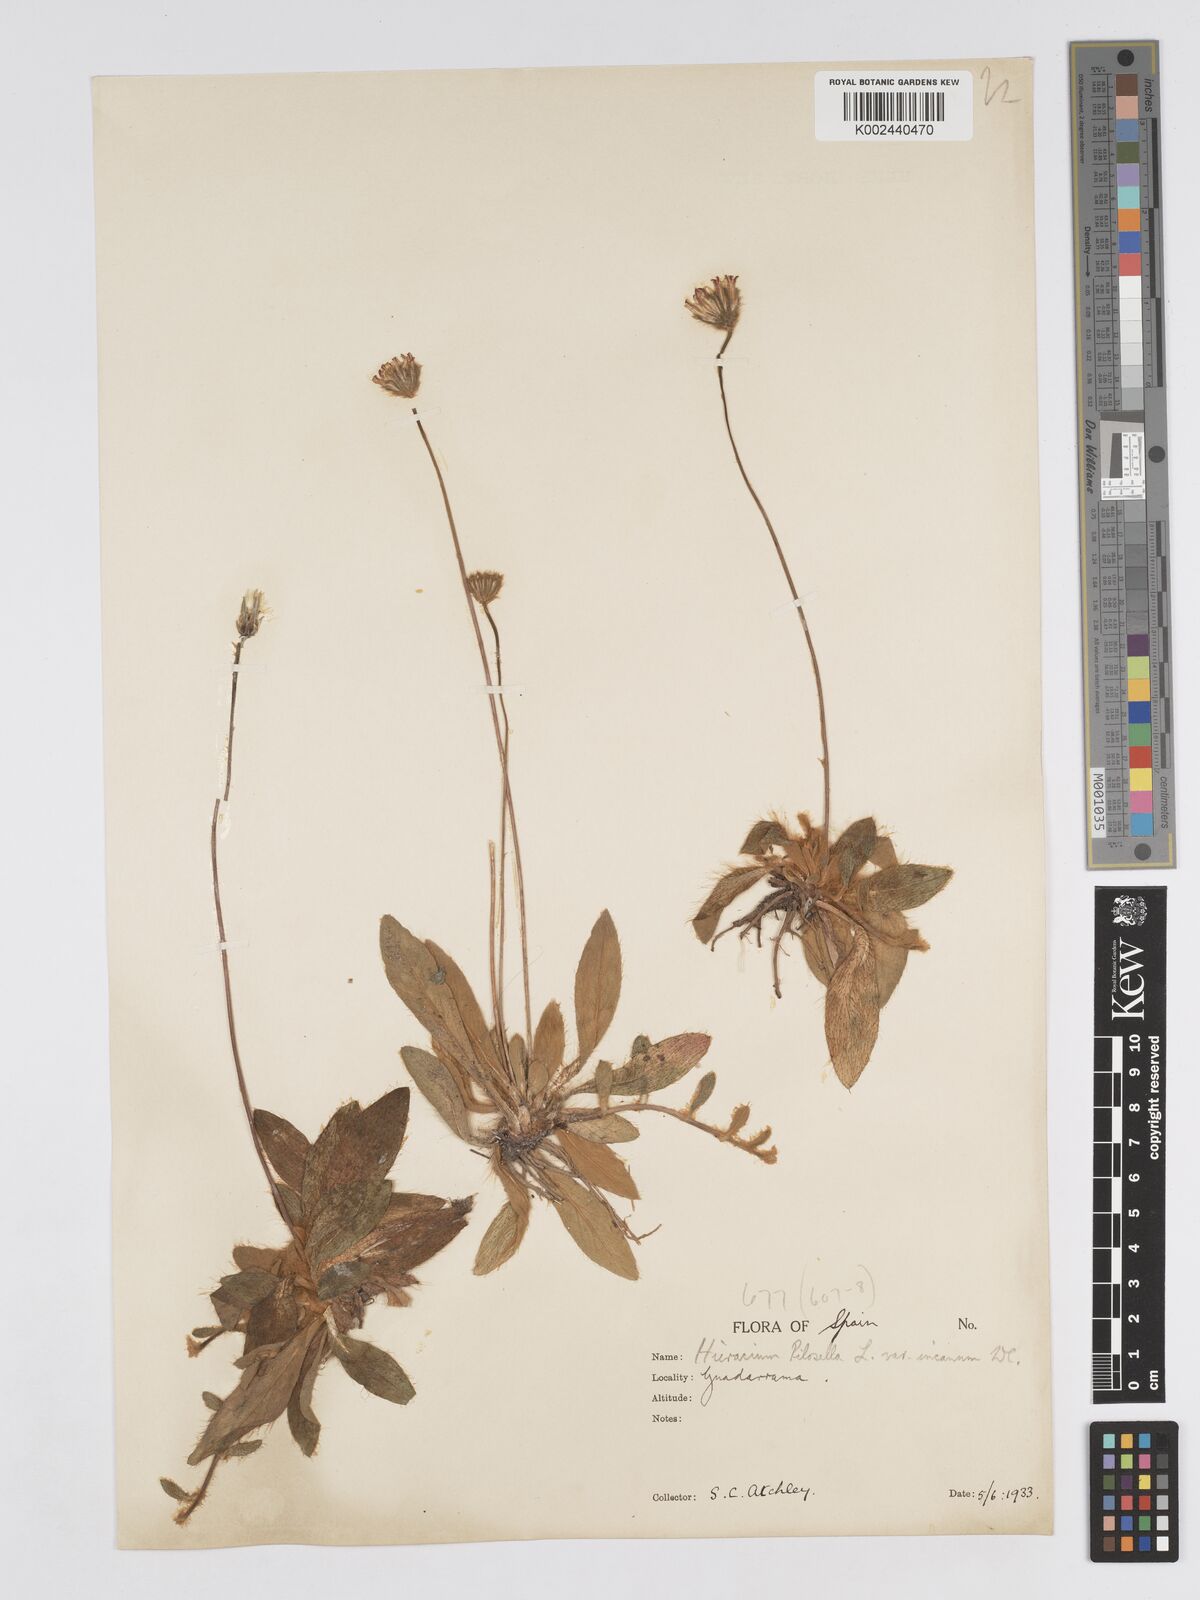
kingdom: Plantae
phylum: Tracheophyta
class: Magnoliopsida
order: Asterales
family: Asteraceae
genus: Pilosella
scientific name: Pilosella velutina
